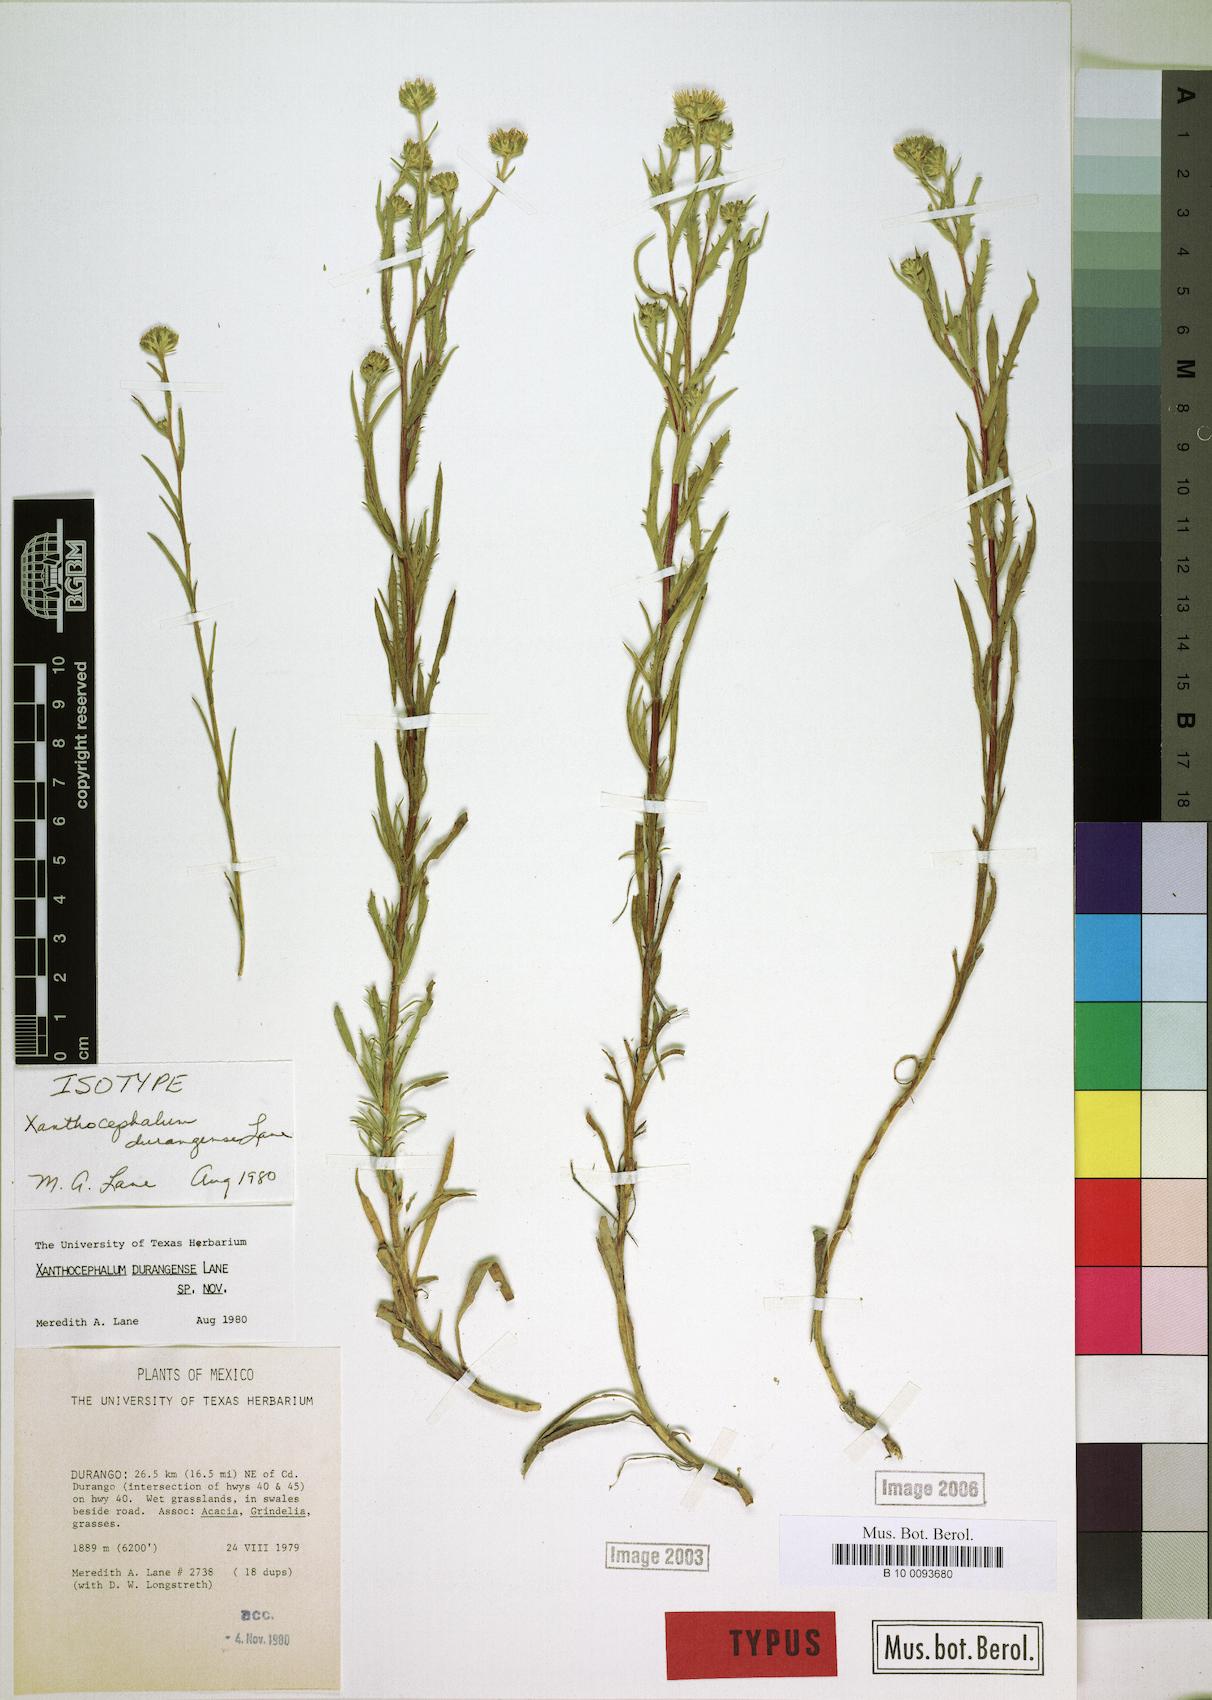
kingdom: Plantae
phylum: Tracheophyta
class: Magnoliopsida
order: Asterales
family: Asteraceae
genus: Xanthocephalum
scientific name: Xanthocephalum durangense
